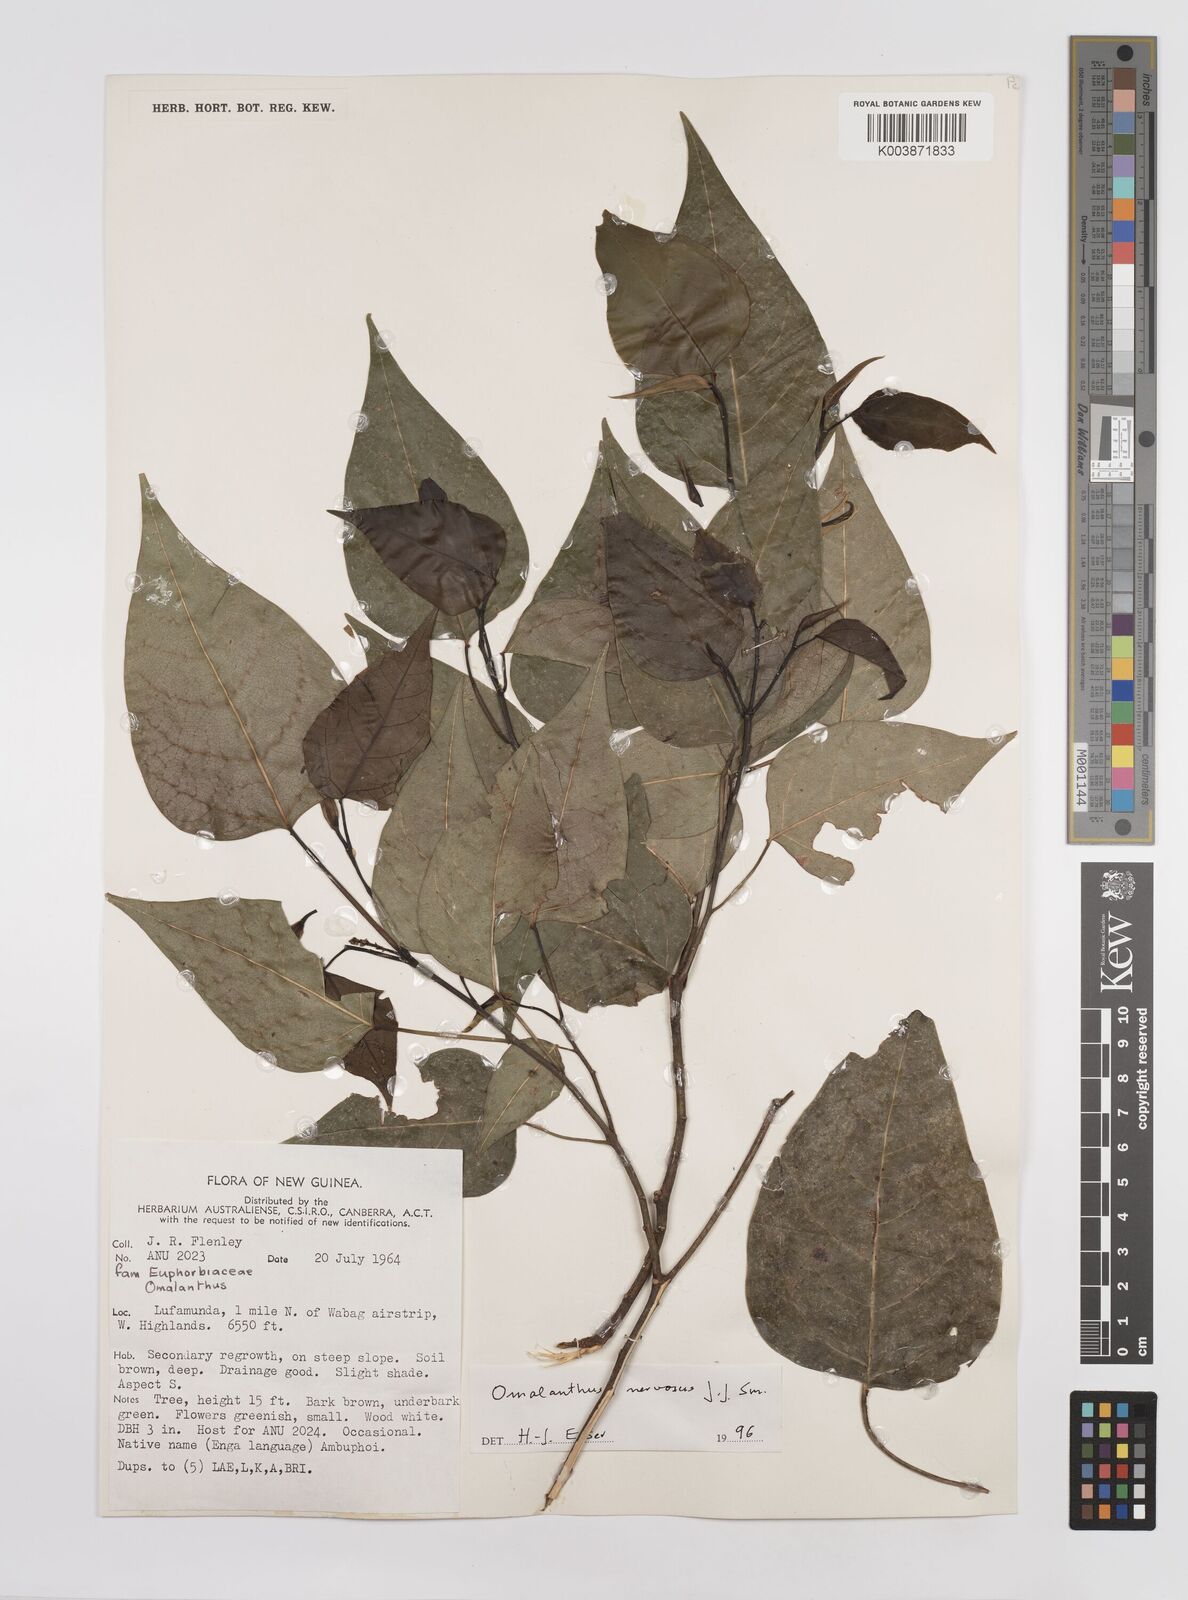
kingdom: Plantae
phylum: Tracheophyta
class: Magnoliopsida
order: Malpighiales
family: Euphorbiaceae
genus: Homalanthus
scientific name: Homalanthus nervosus
